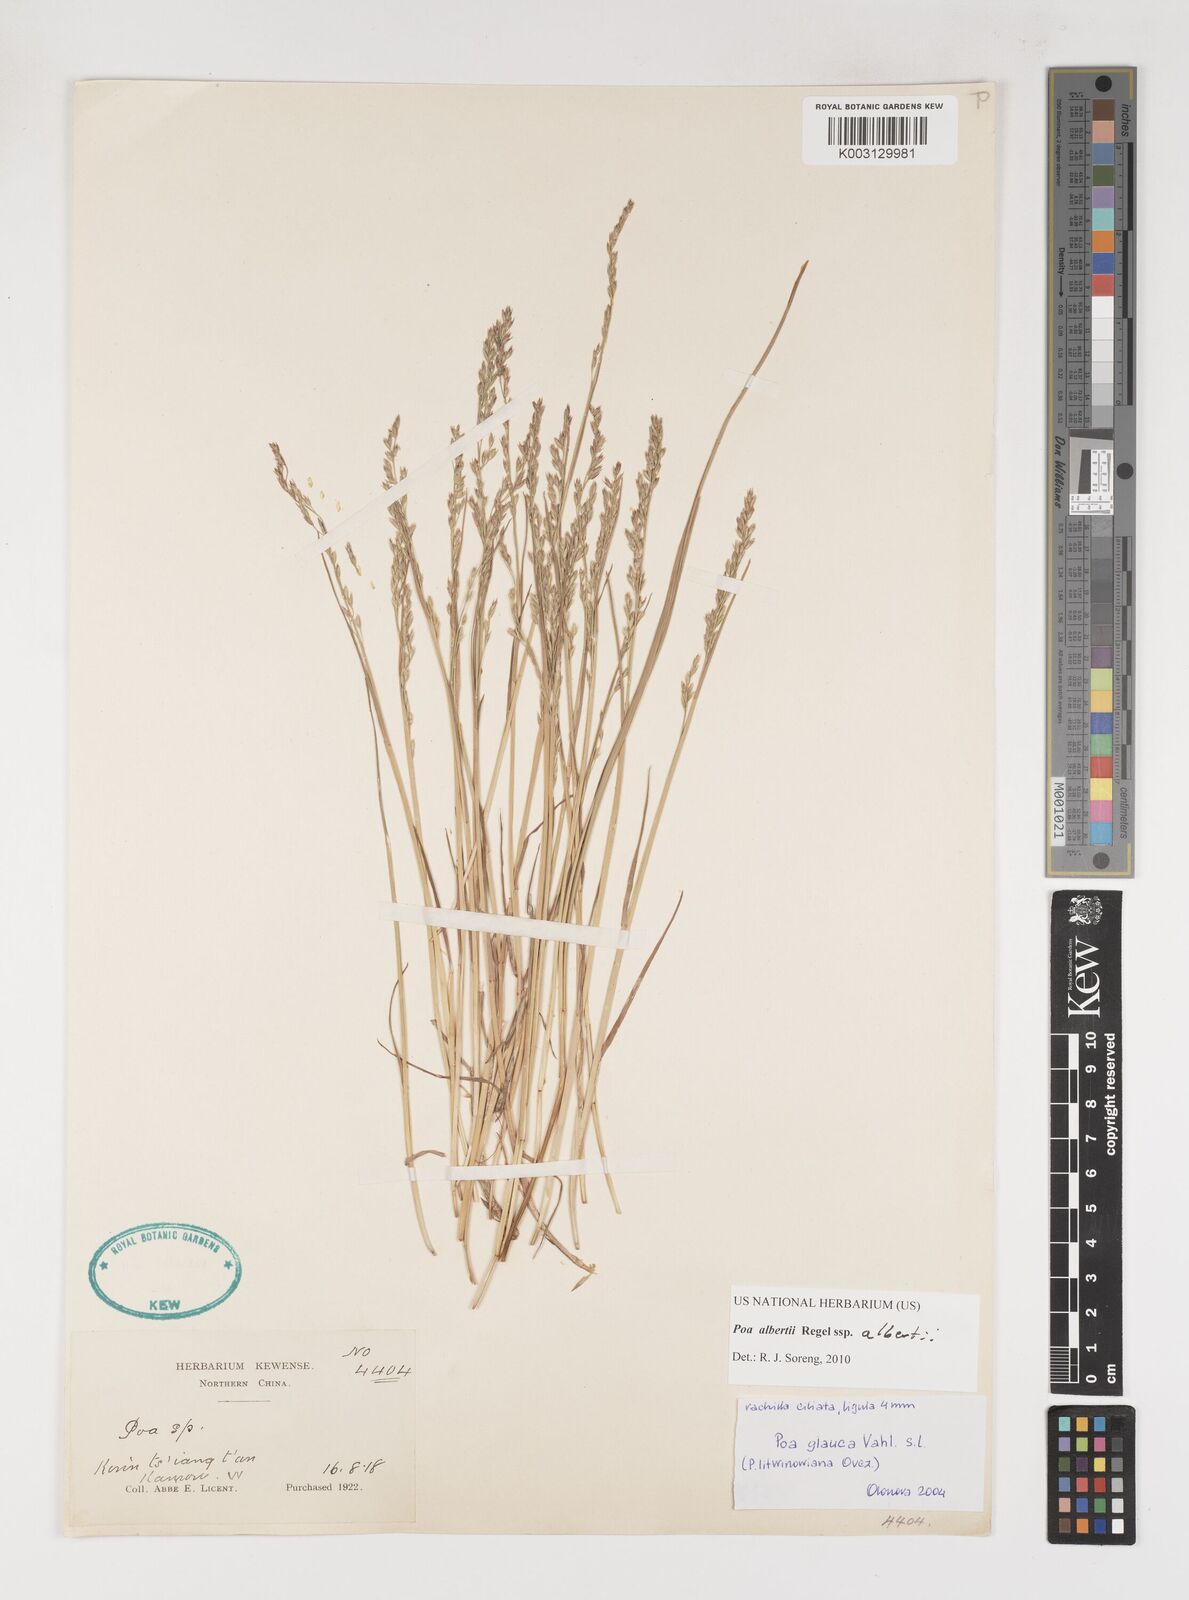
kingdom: Plantae
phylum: Tracheophyta
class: Liliopsida
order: Poales
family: Poaceae
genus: Poa
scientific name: Poa alberti
